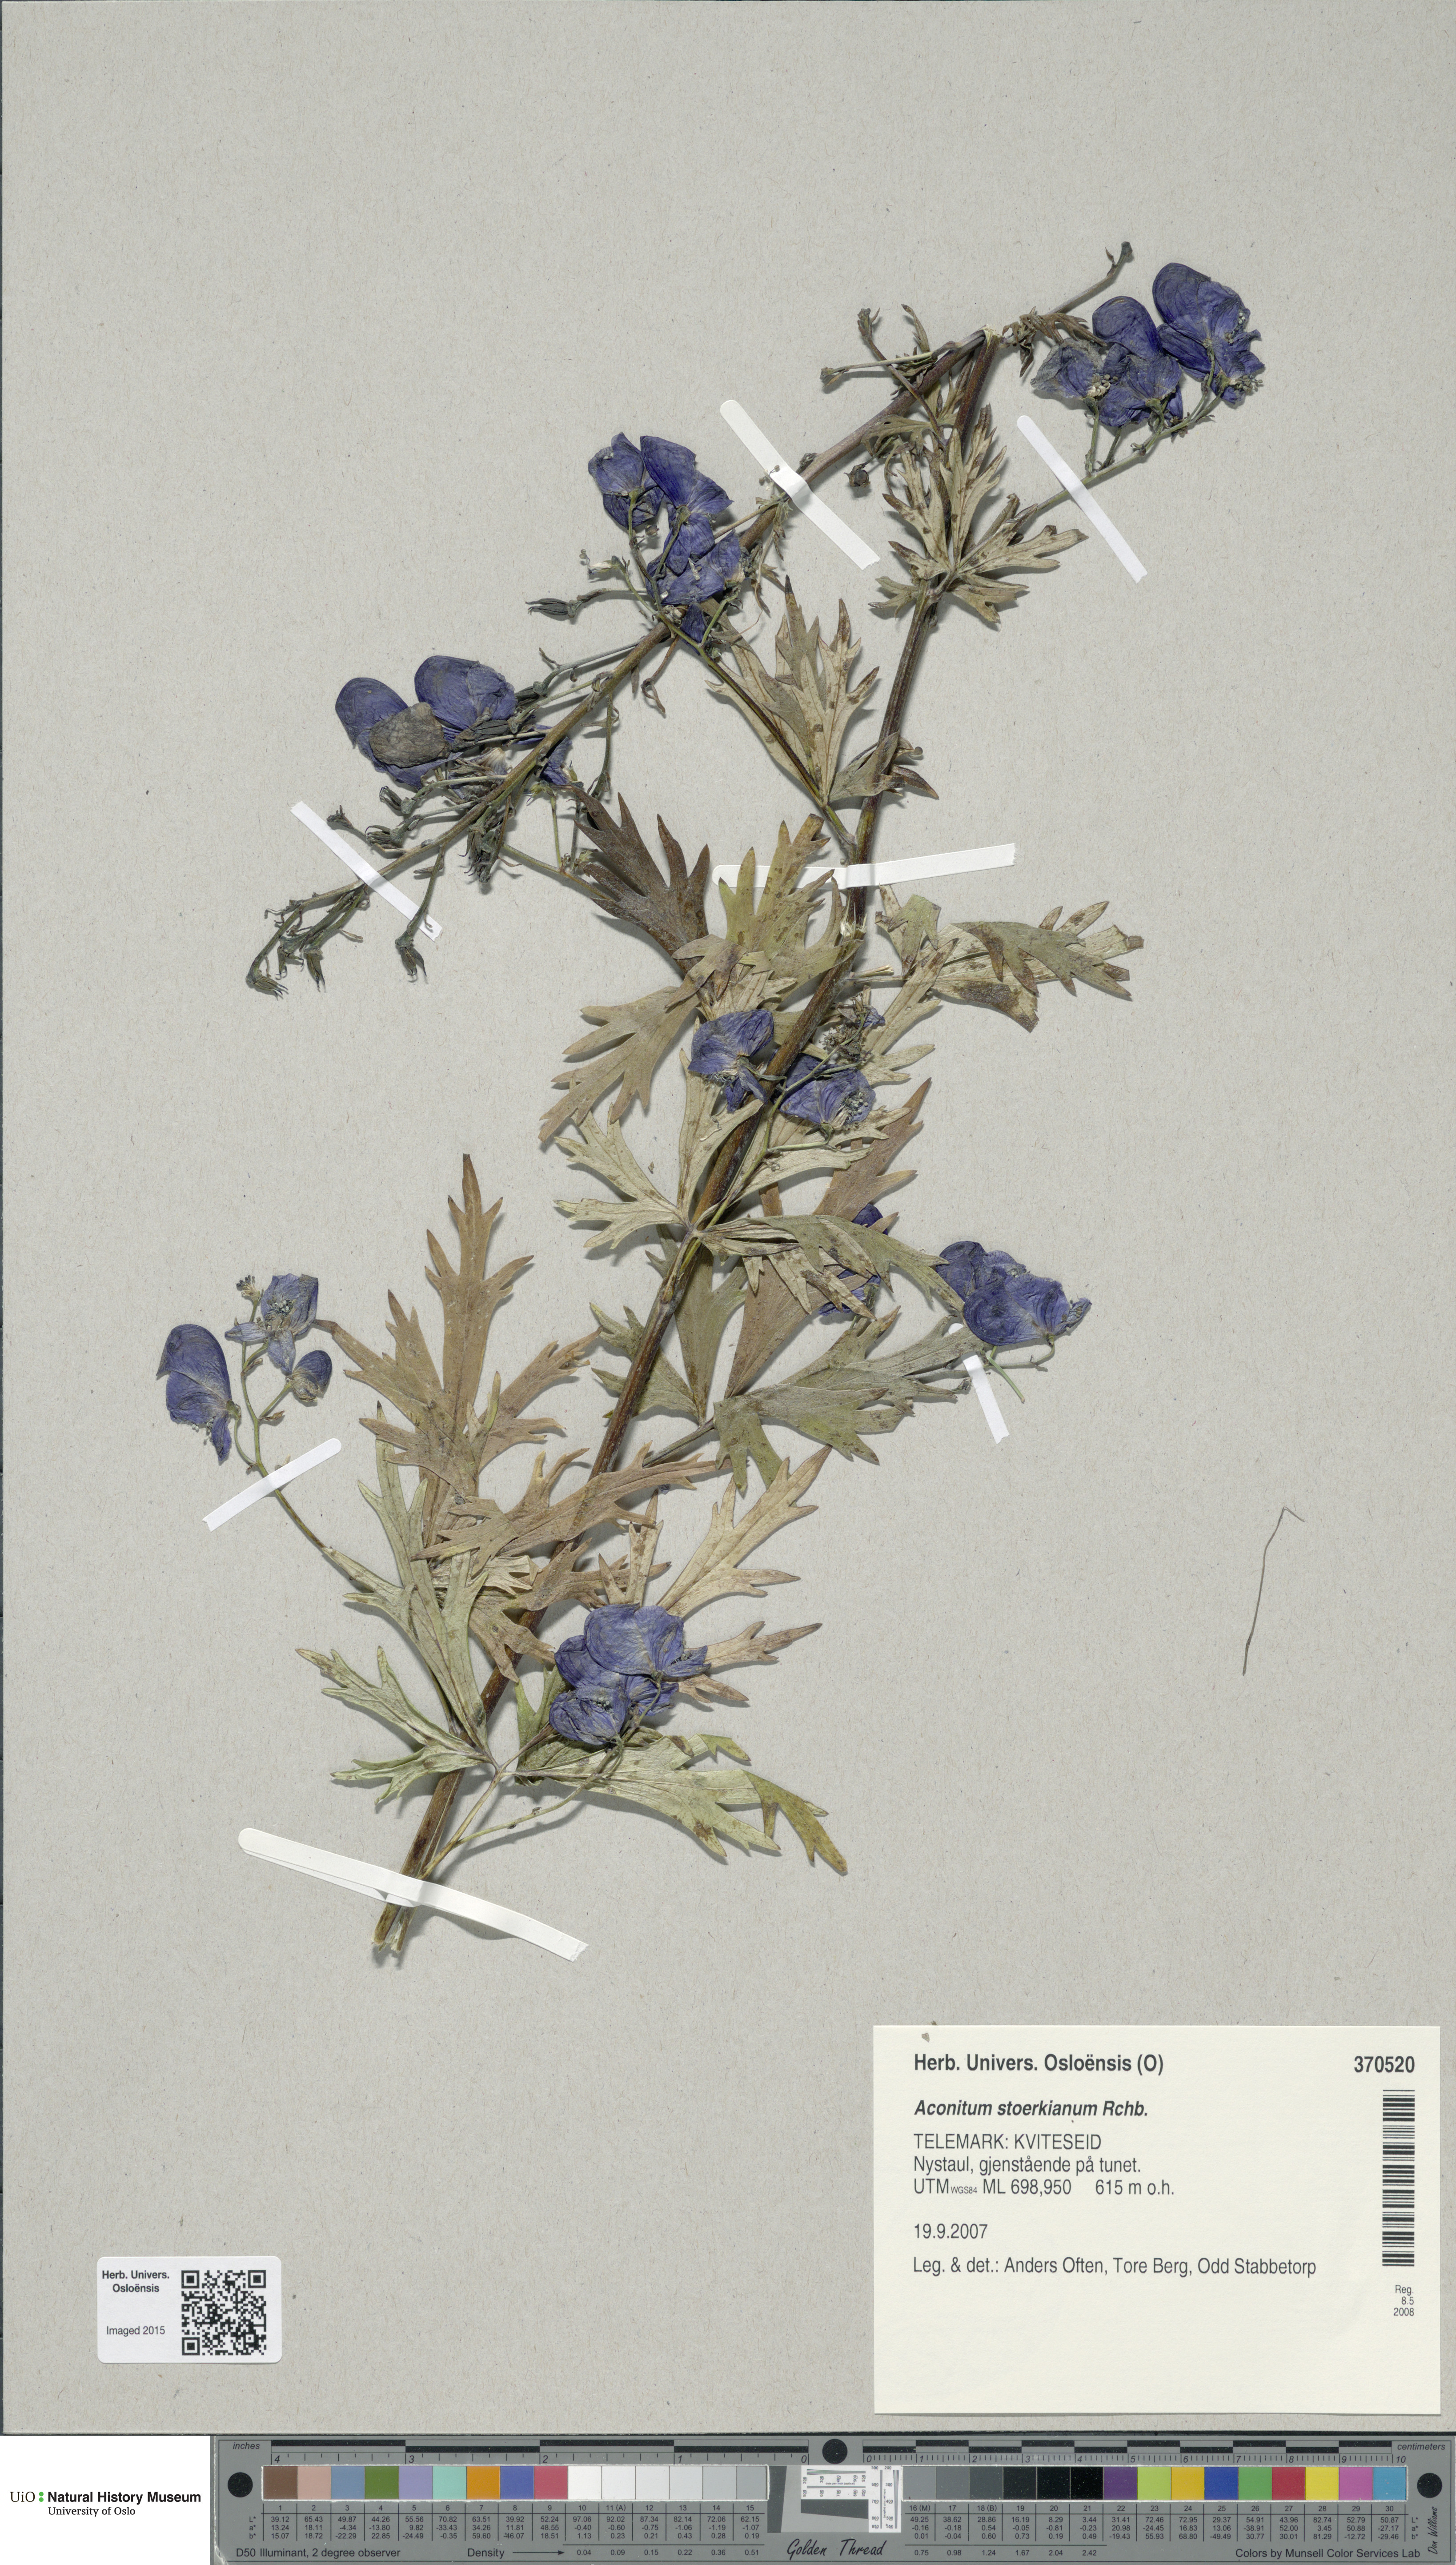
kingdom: Plantae
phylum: Tracheophyta
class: Magnoliopsida
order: Ranunculales
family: Ranunculaceae
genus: Aconitum
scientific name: Aconitum cammarum
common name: Hybrid monk's-hood
